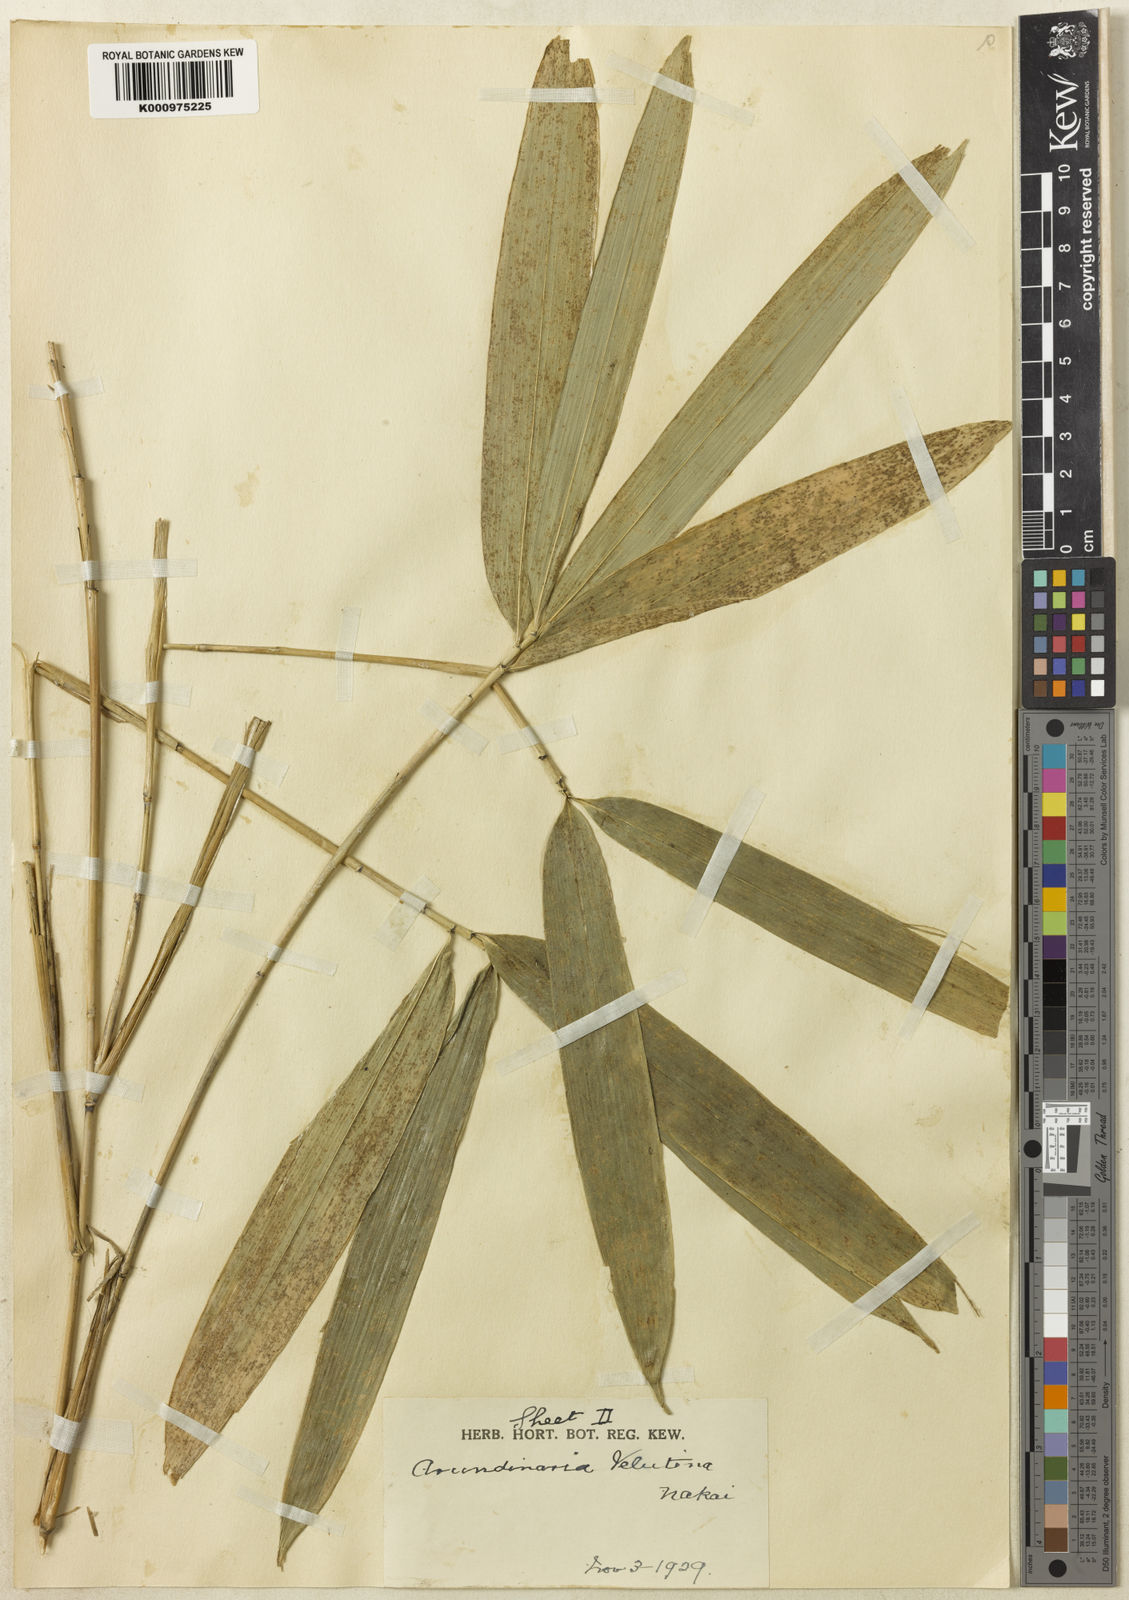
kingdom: Plantae
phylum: Tracheophyta
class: Liliopsida
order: Poales
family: Poaceae
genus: Sasaella
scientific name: Sasaella ramosa
